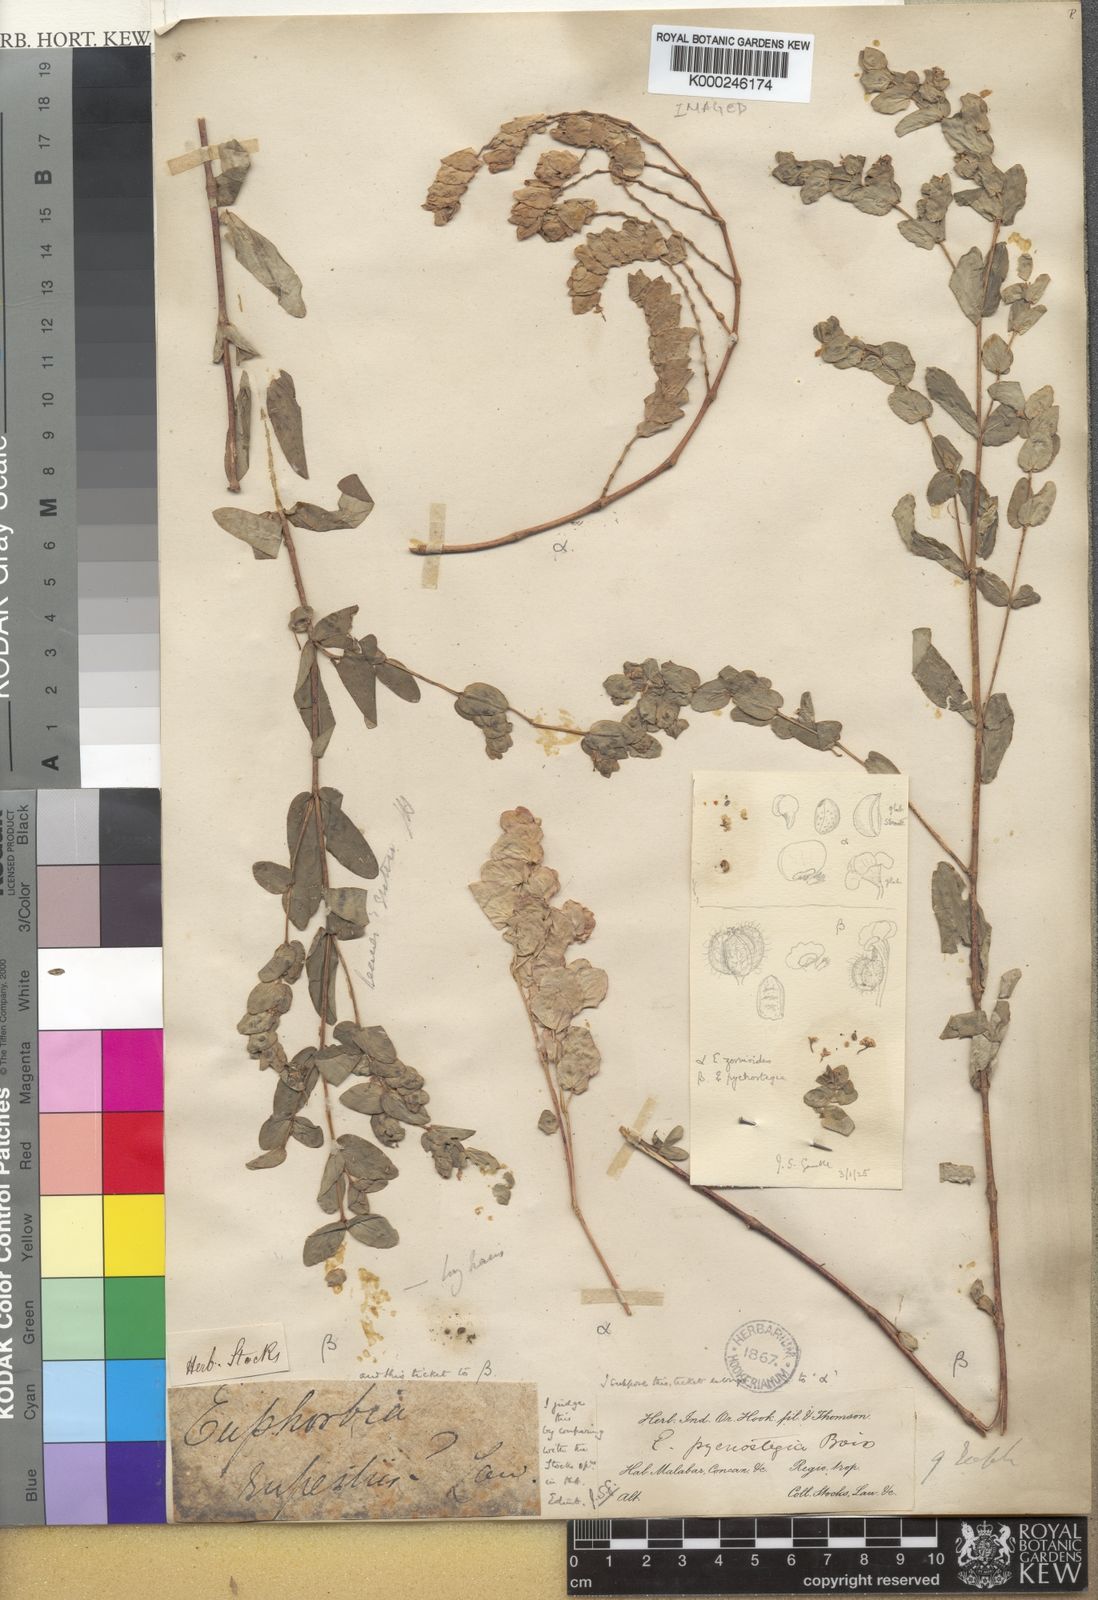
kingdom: Plantae
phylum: Tracheophyta
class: Magnoliopsida
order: Malpighiales
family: Euphorbiaceae
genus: Euphorbia
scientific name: Euphorbia pycnostegia
